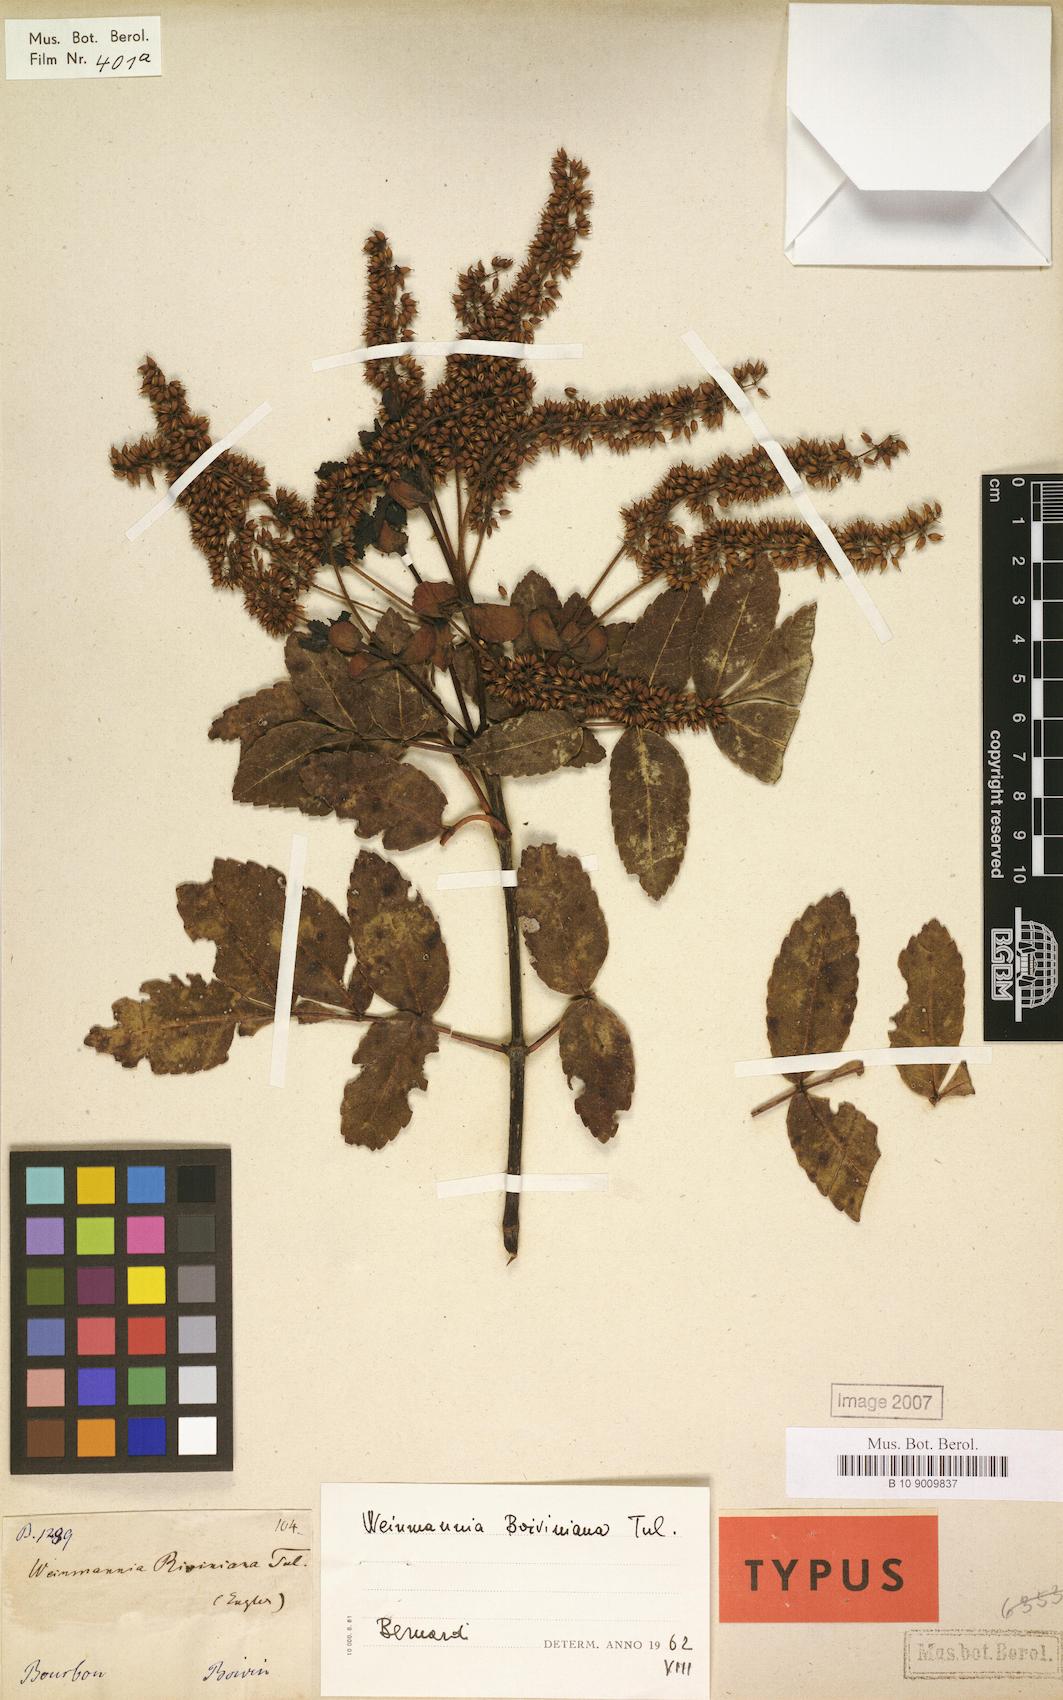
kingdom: Plantae
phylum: Tracheophyta
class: Magnoliopsida
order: Oxalidales
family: Cunoniaceae
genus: Weinmannia
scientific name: Weinmannia mauritiana
